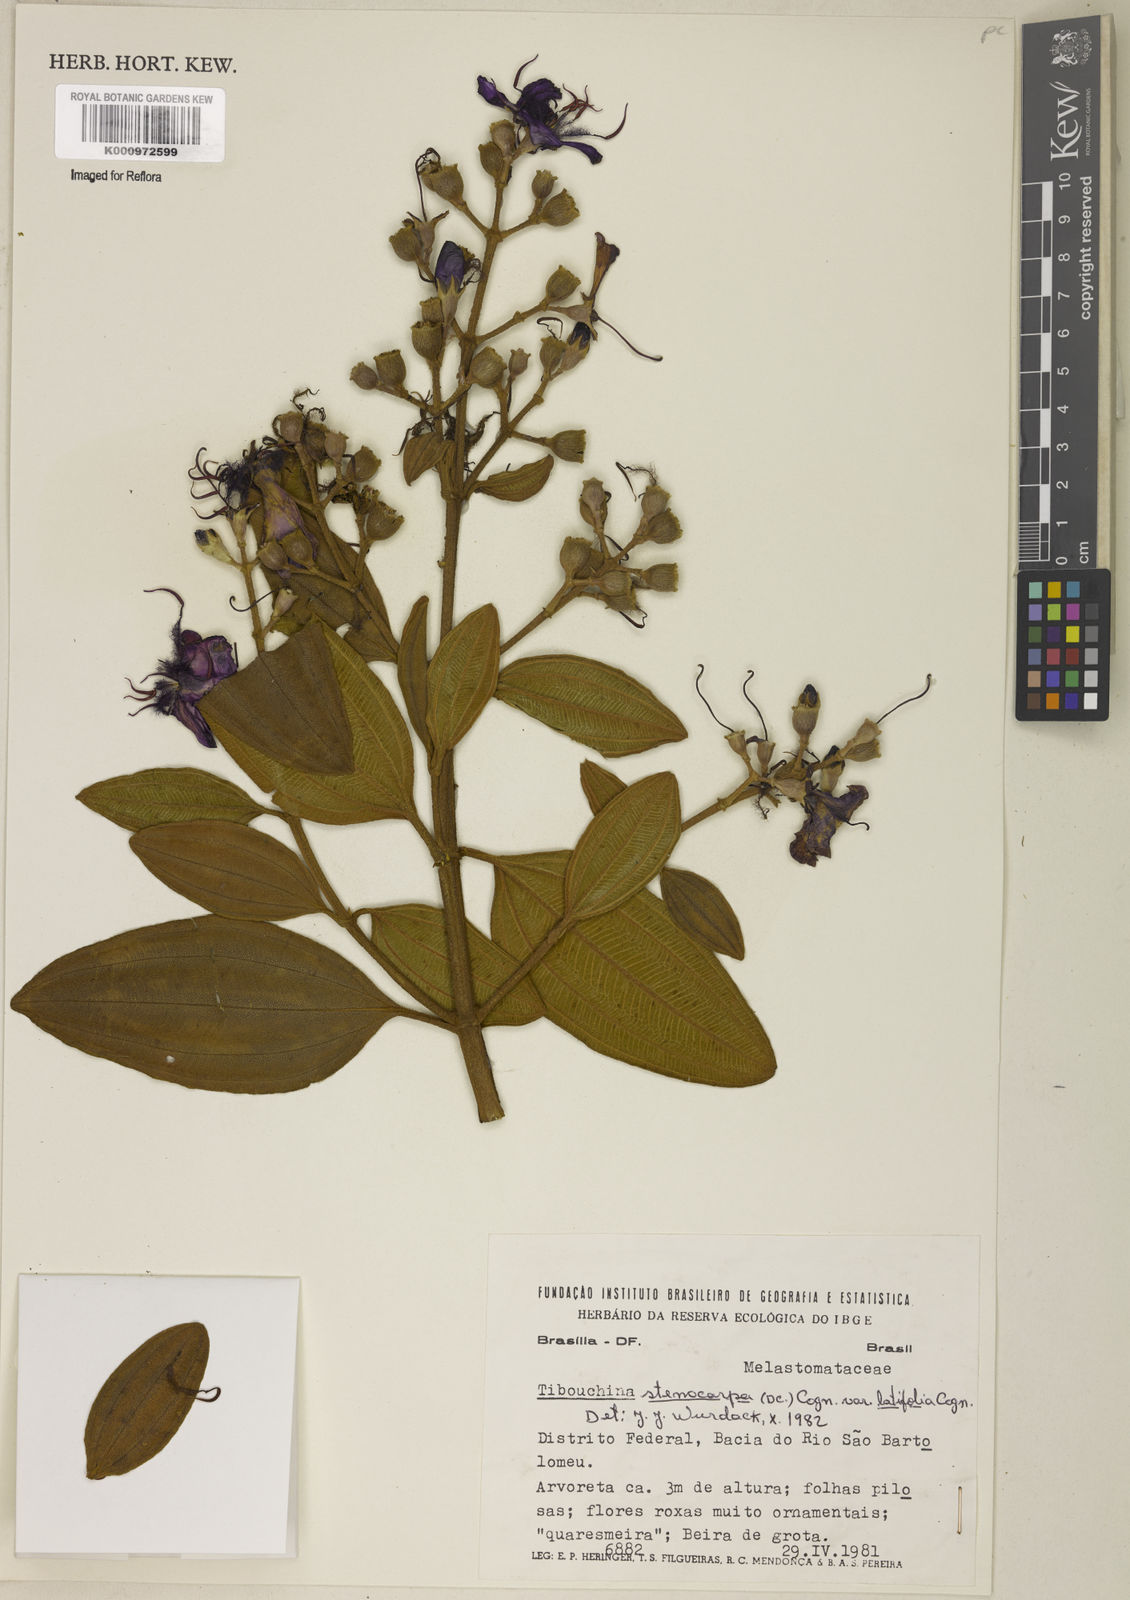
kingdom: Plantae
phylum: Tracheophyta
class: Magnoliopsida
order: Myrtales
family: Melastomataceae
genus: Pleroma
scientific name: Pleroma stenocarpum
